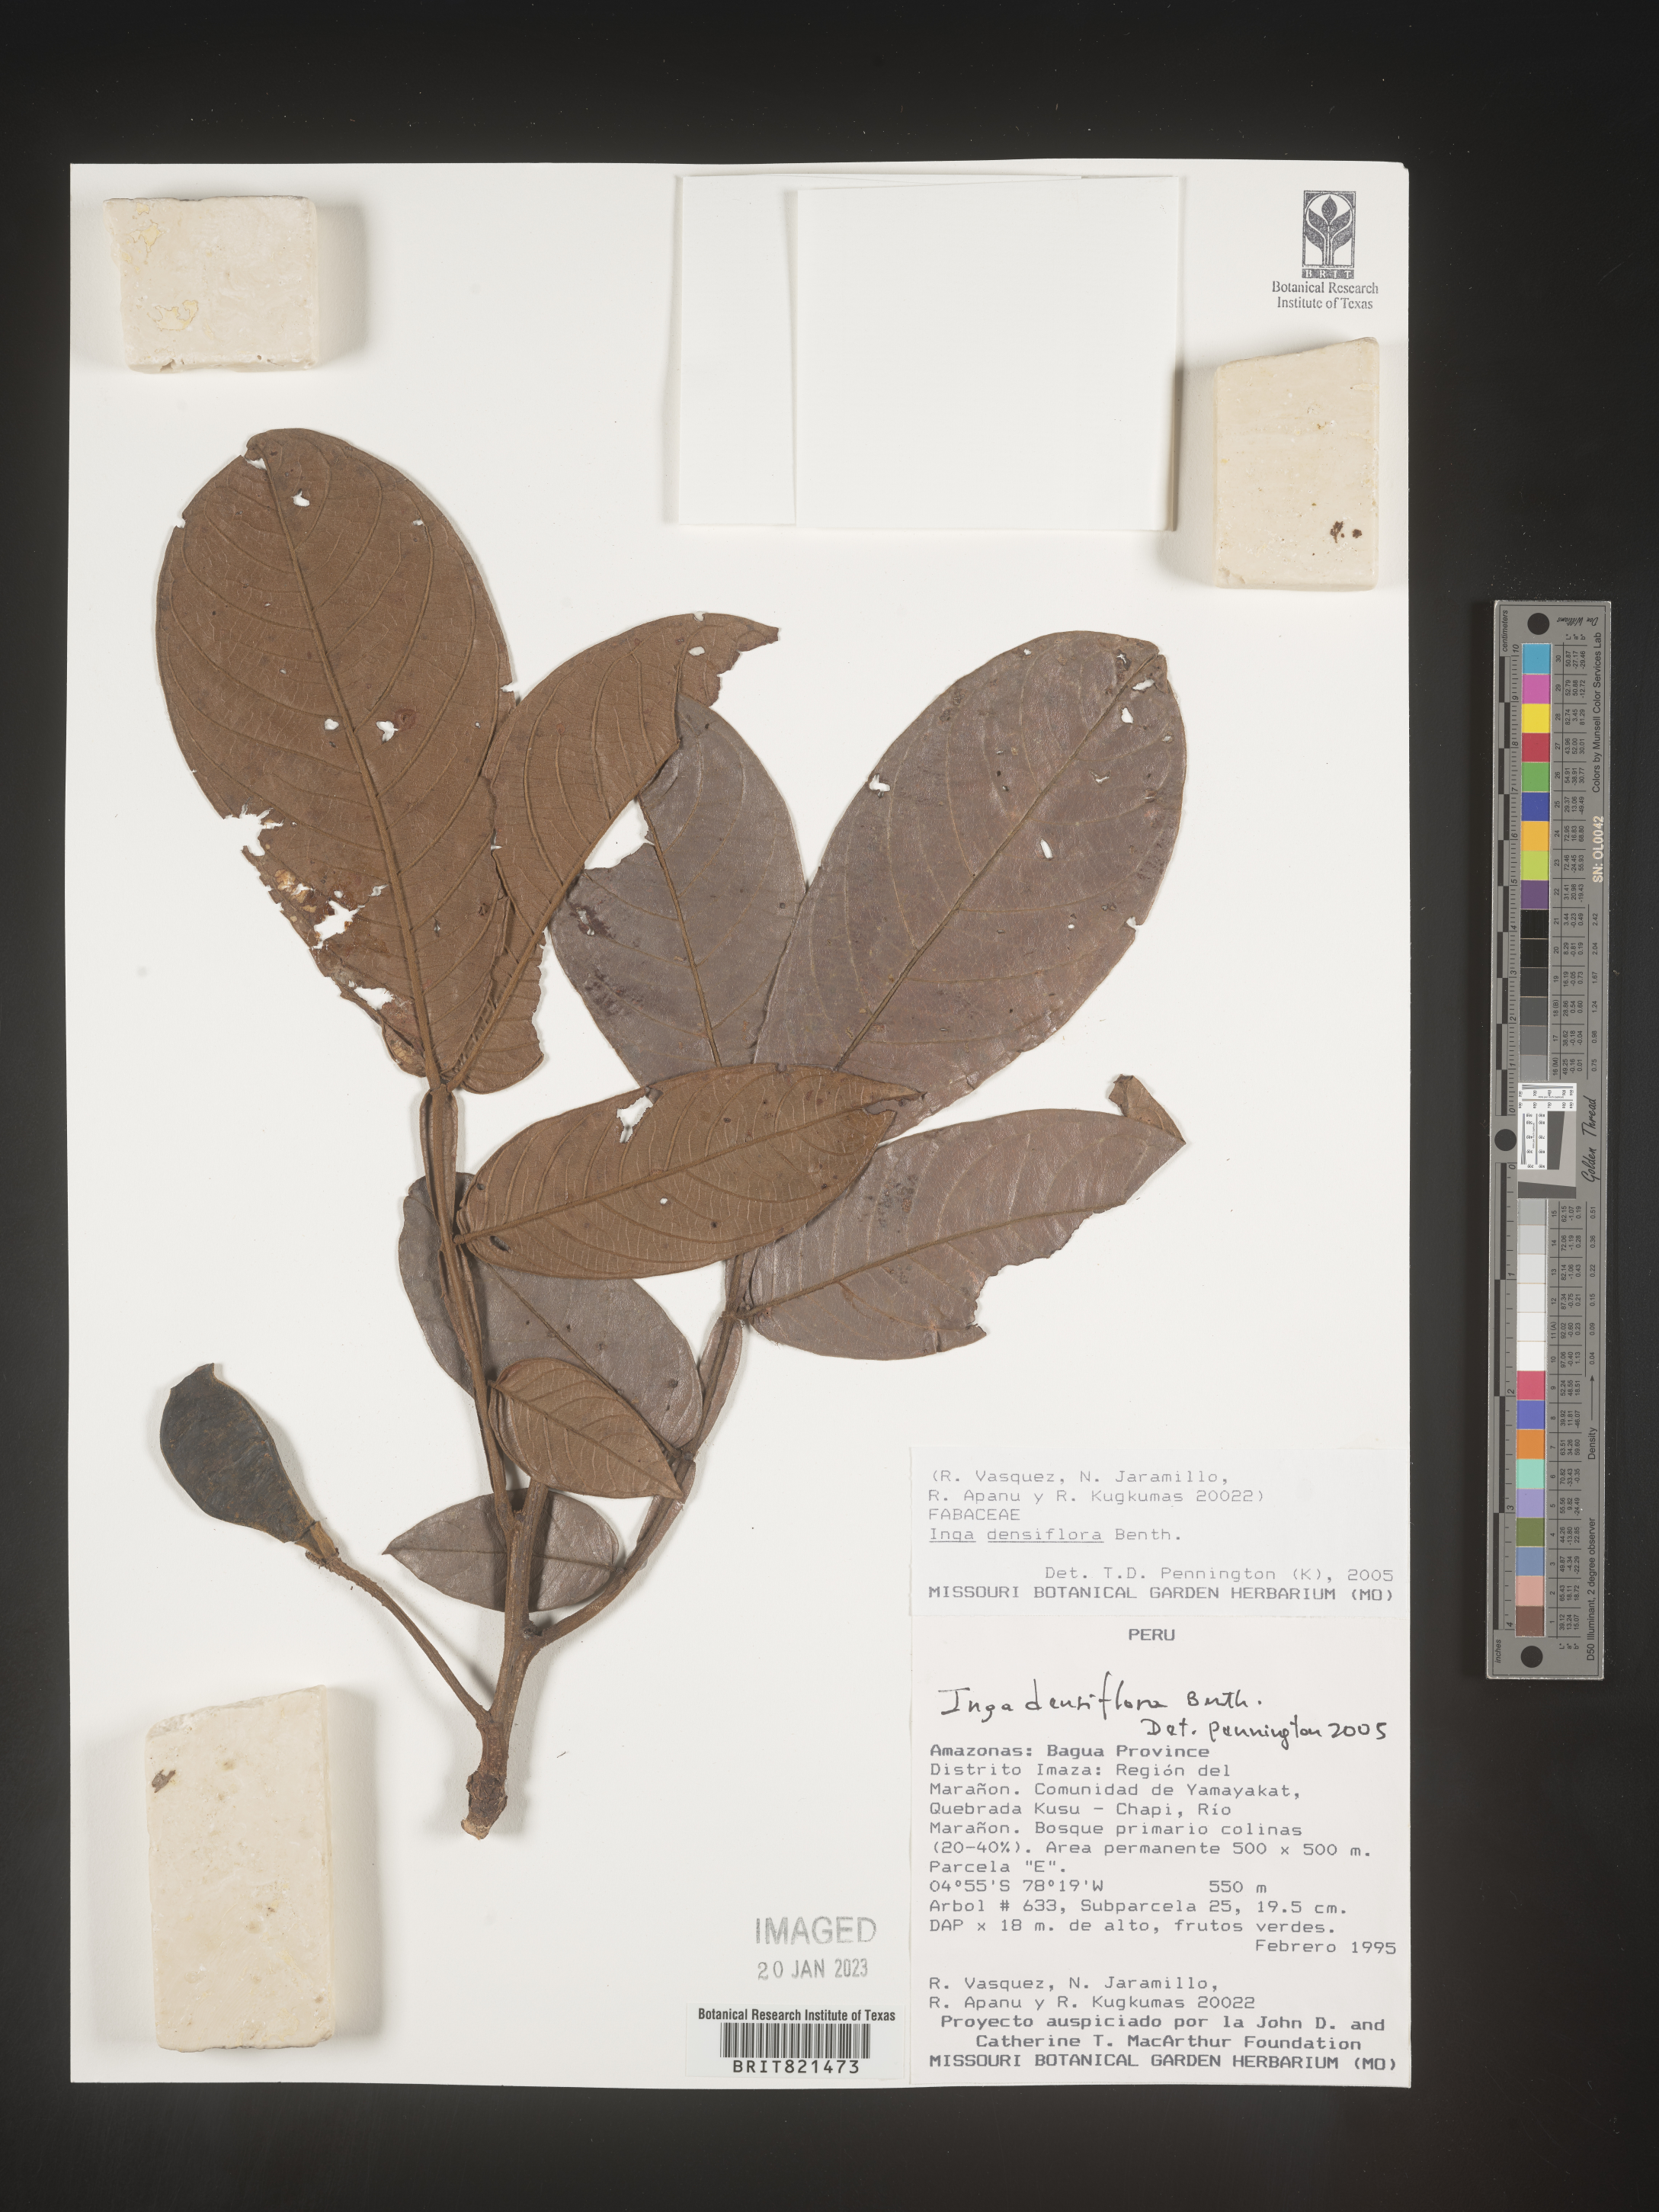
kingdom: Plantae
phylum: Tracheophyta
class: Magnoliopsida
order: Fabales
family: Fabaceae
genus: Inga
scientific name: Inga
